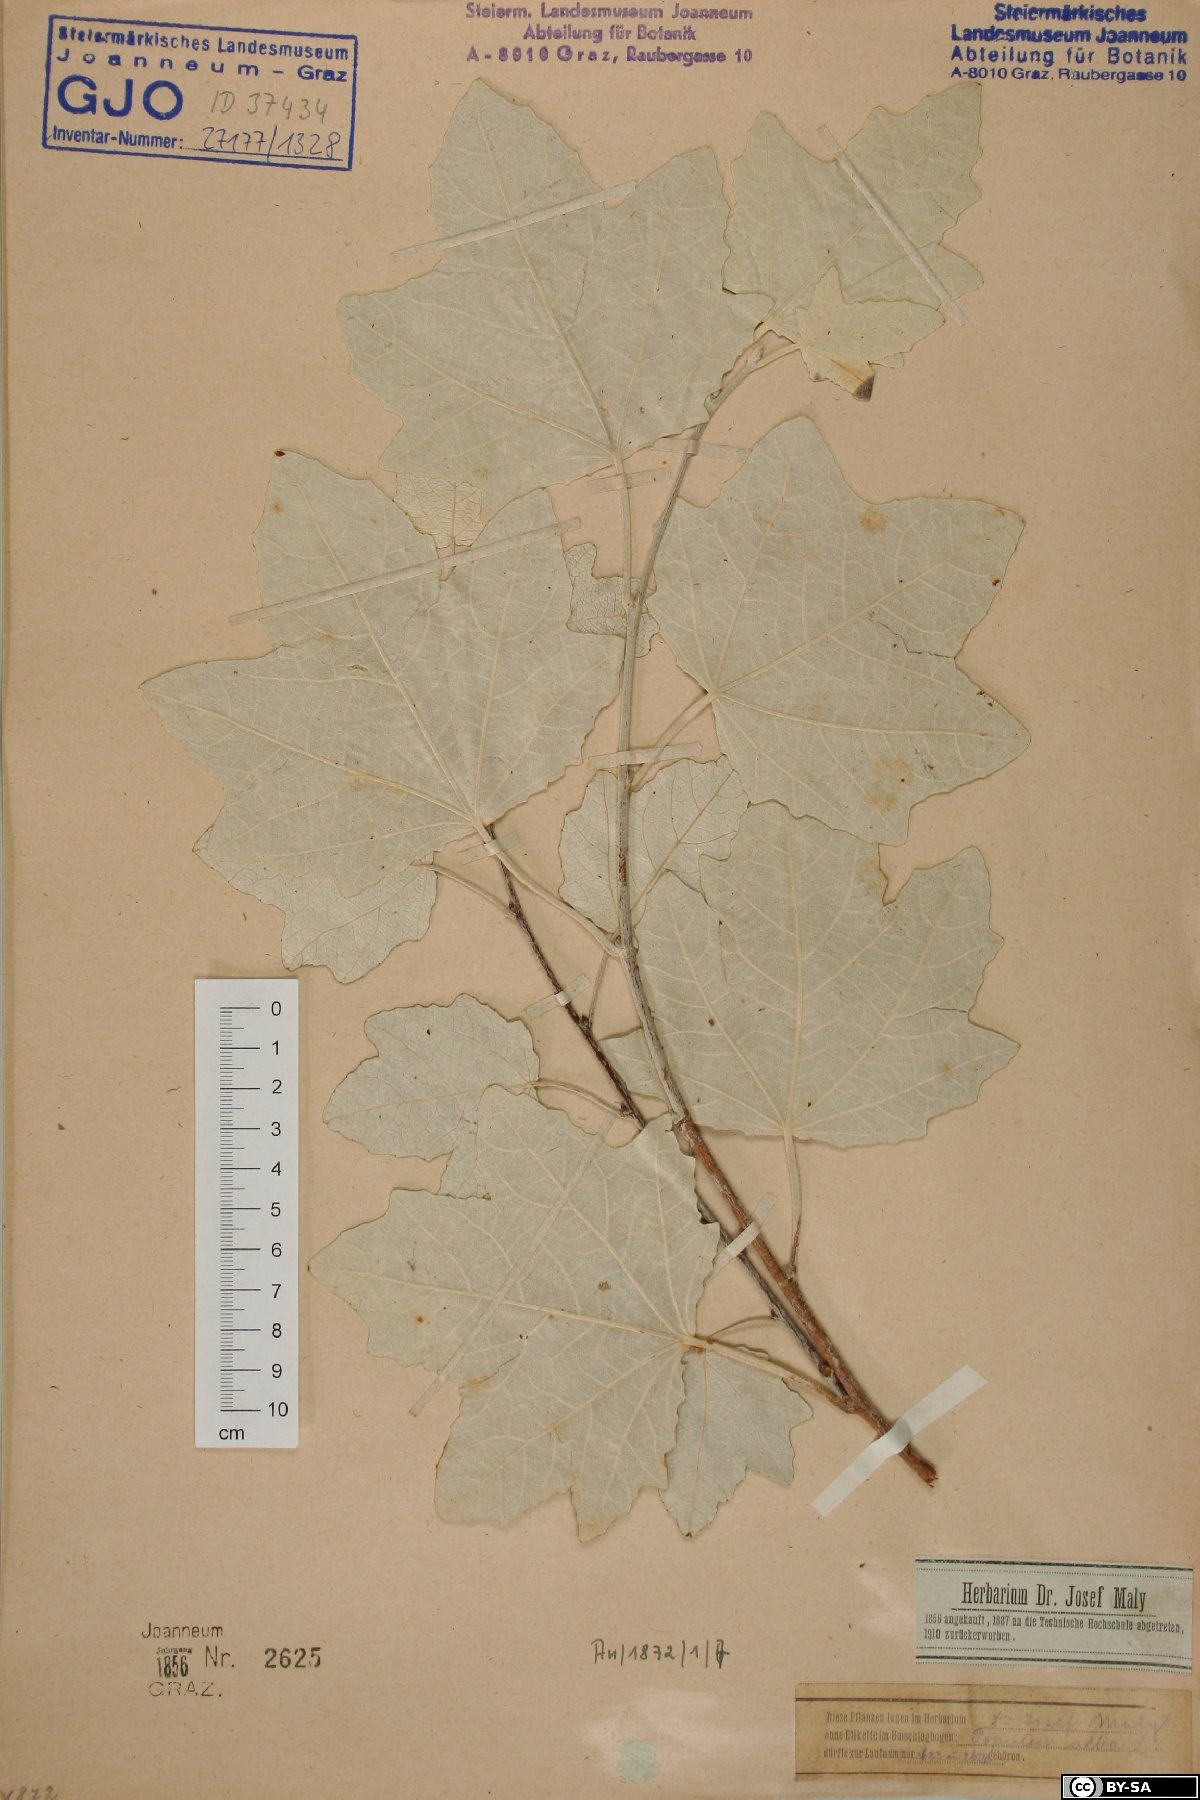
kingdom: Plantae
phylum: Tracheophyta
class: Magnoliopsida
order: Malpighiales
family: Salicaceae
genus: Populus
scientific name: Populus alba
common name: White poplar
